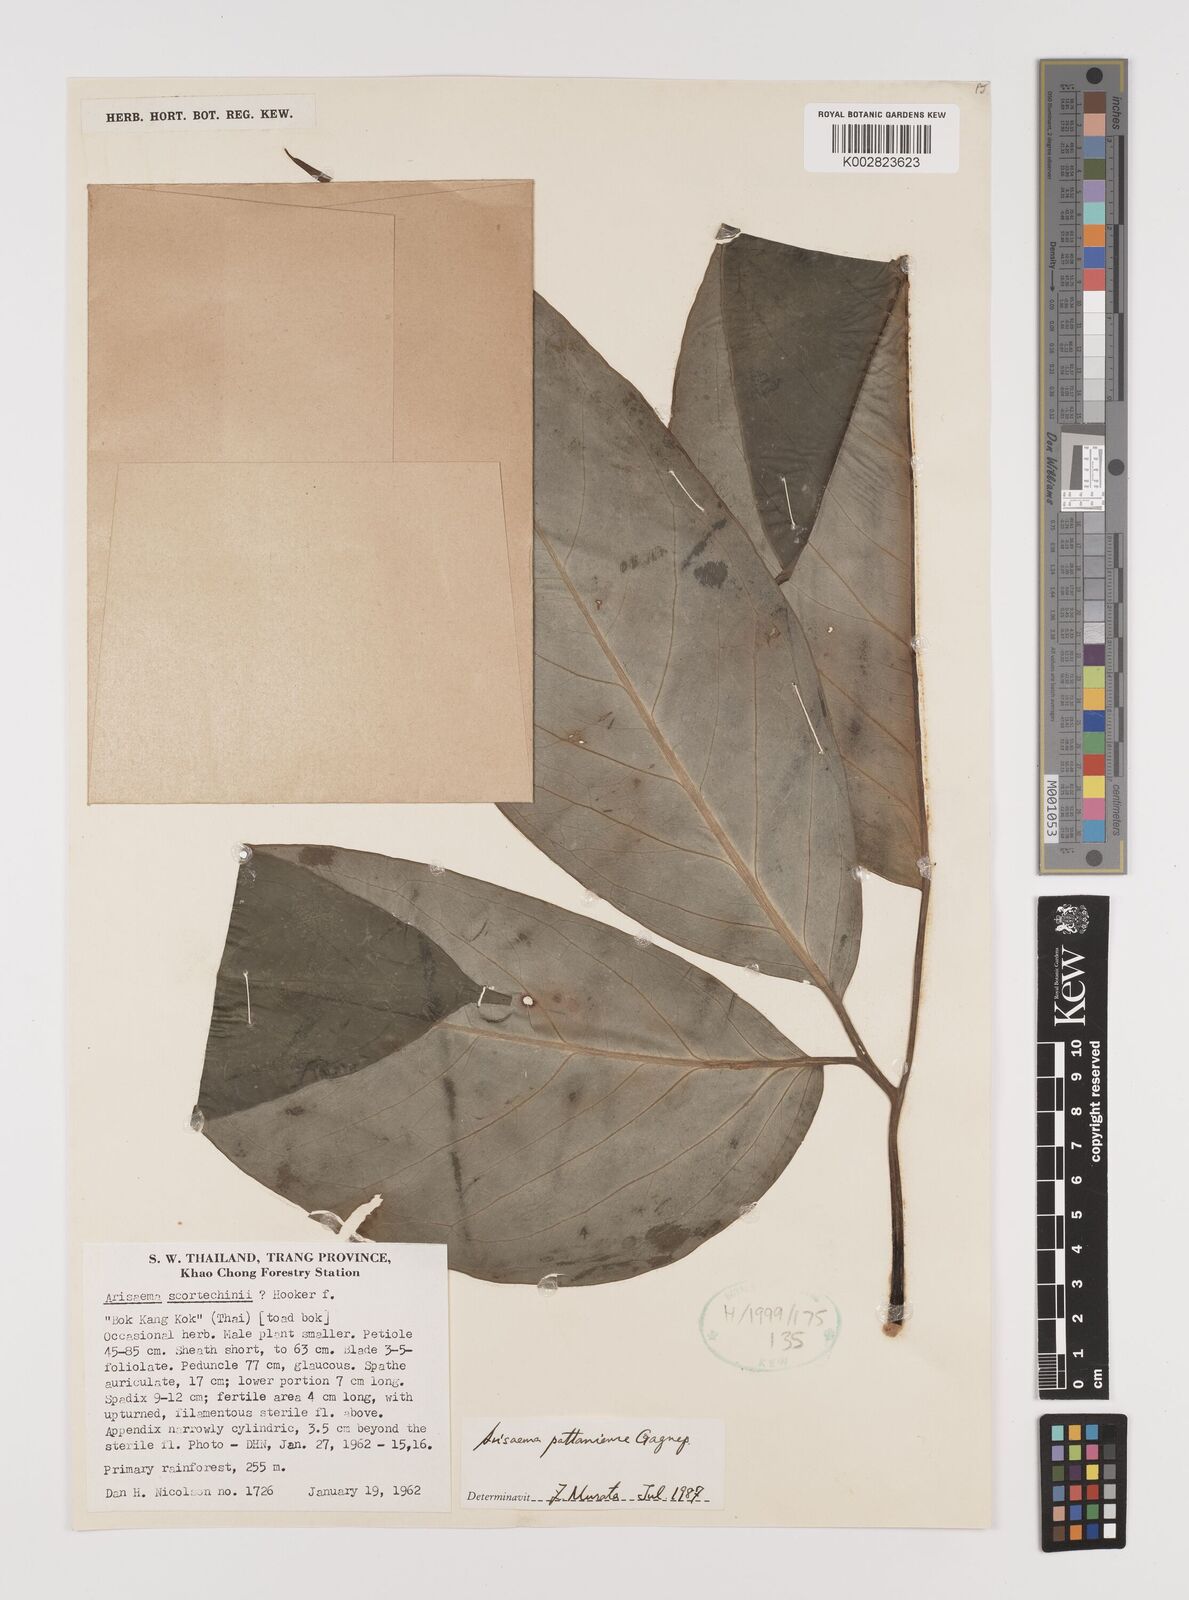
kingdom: Plantae
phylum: Tracheophyta
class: Liliopsida
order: Alismatales
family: Araceae
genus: Arisaema
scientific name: Arisaema pattaniense
